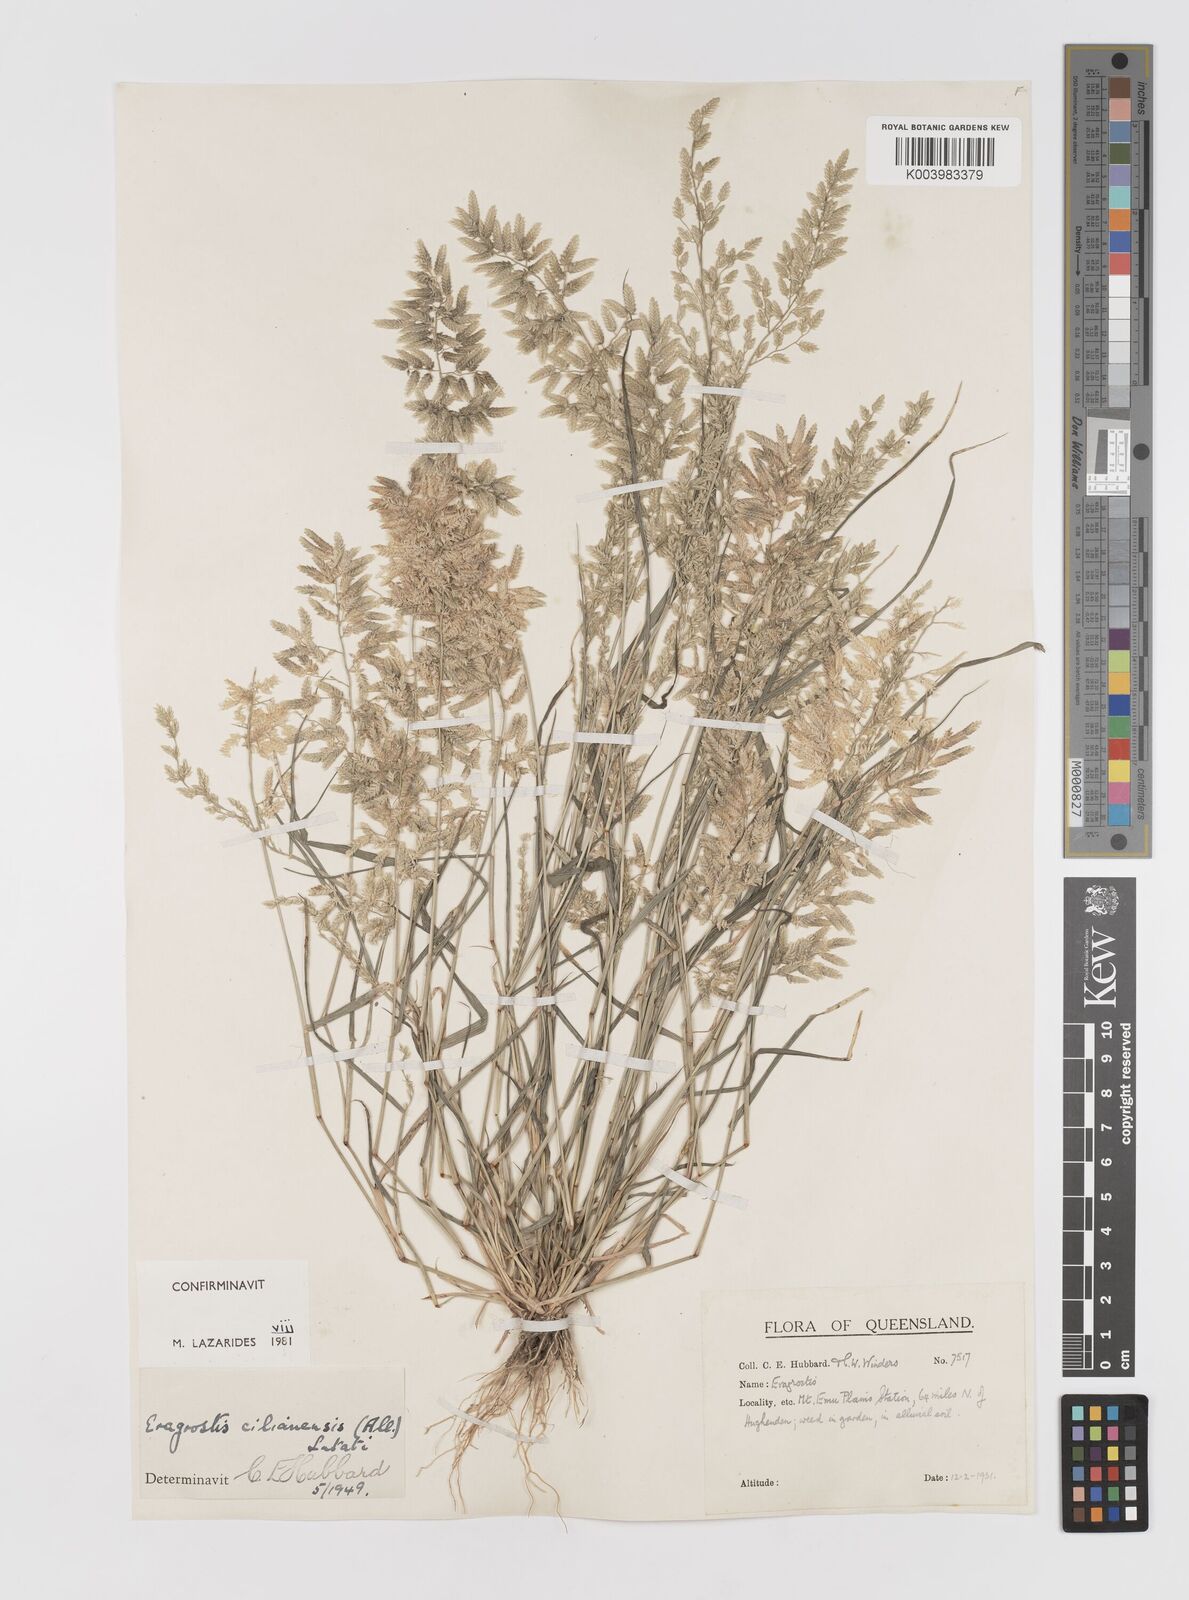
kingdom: Plantae
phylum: Tracheophyta
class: Liliopsida
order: Poales
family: Poaceae
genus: Eragrostis
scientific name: Eragrostis cilianensis
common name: Stinkgrass
